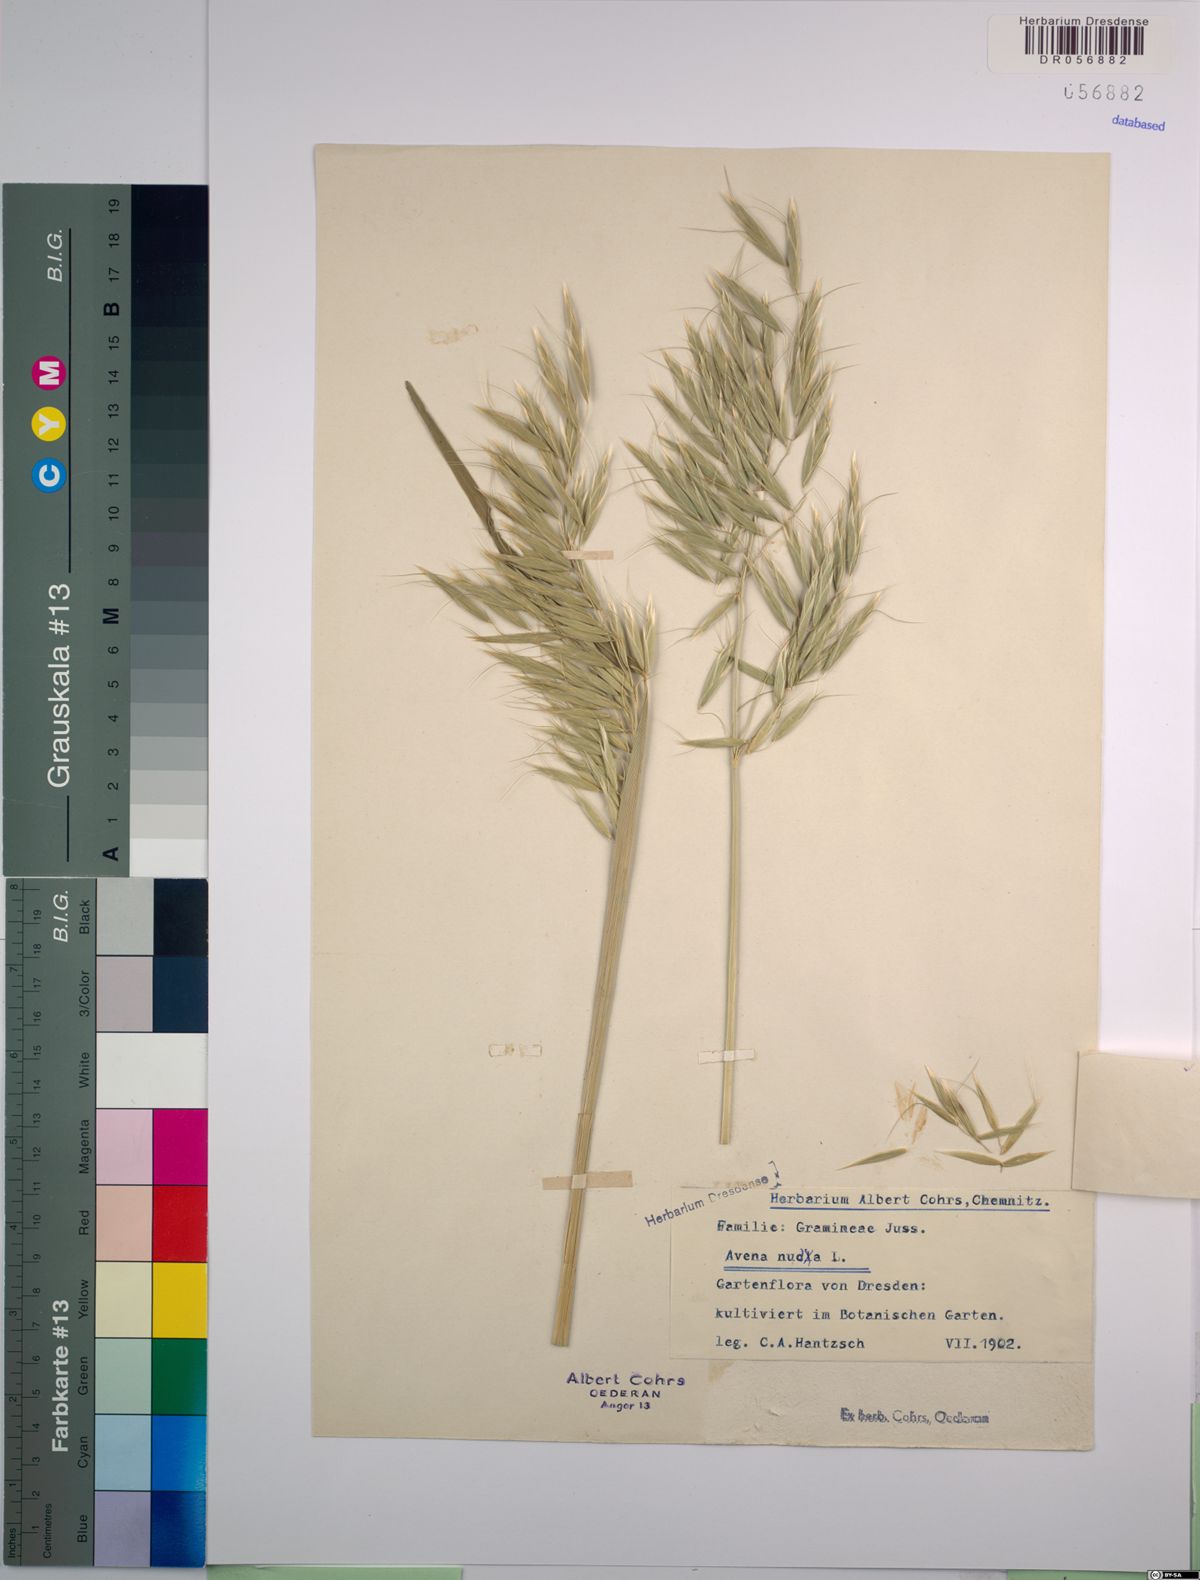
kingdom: Plantae
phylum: Tracheophyta
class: Liliopsida
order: Poales
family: Poaceae
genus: Avena
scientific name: Avena nuda
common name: Naked oat
